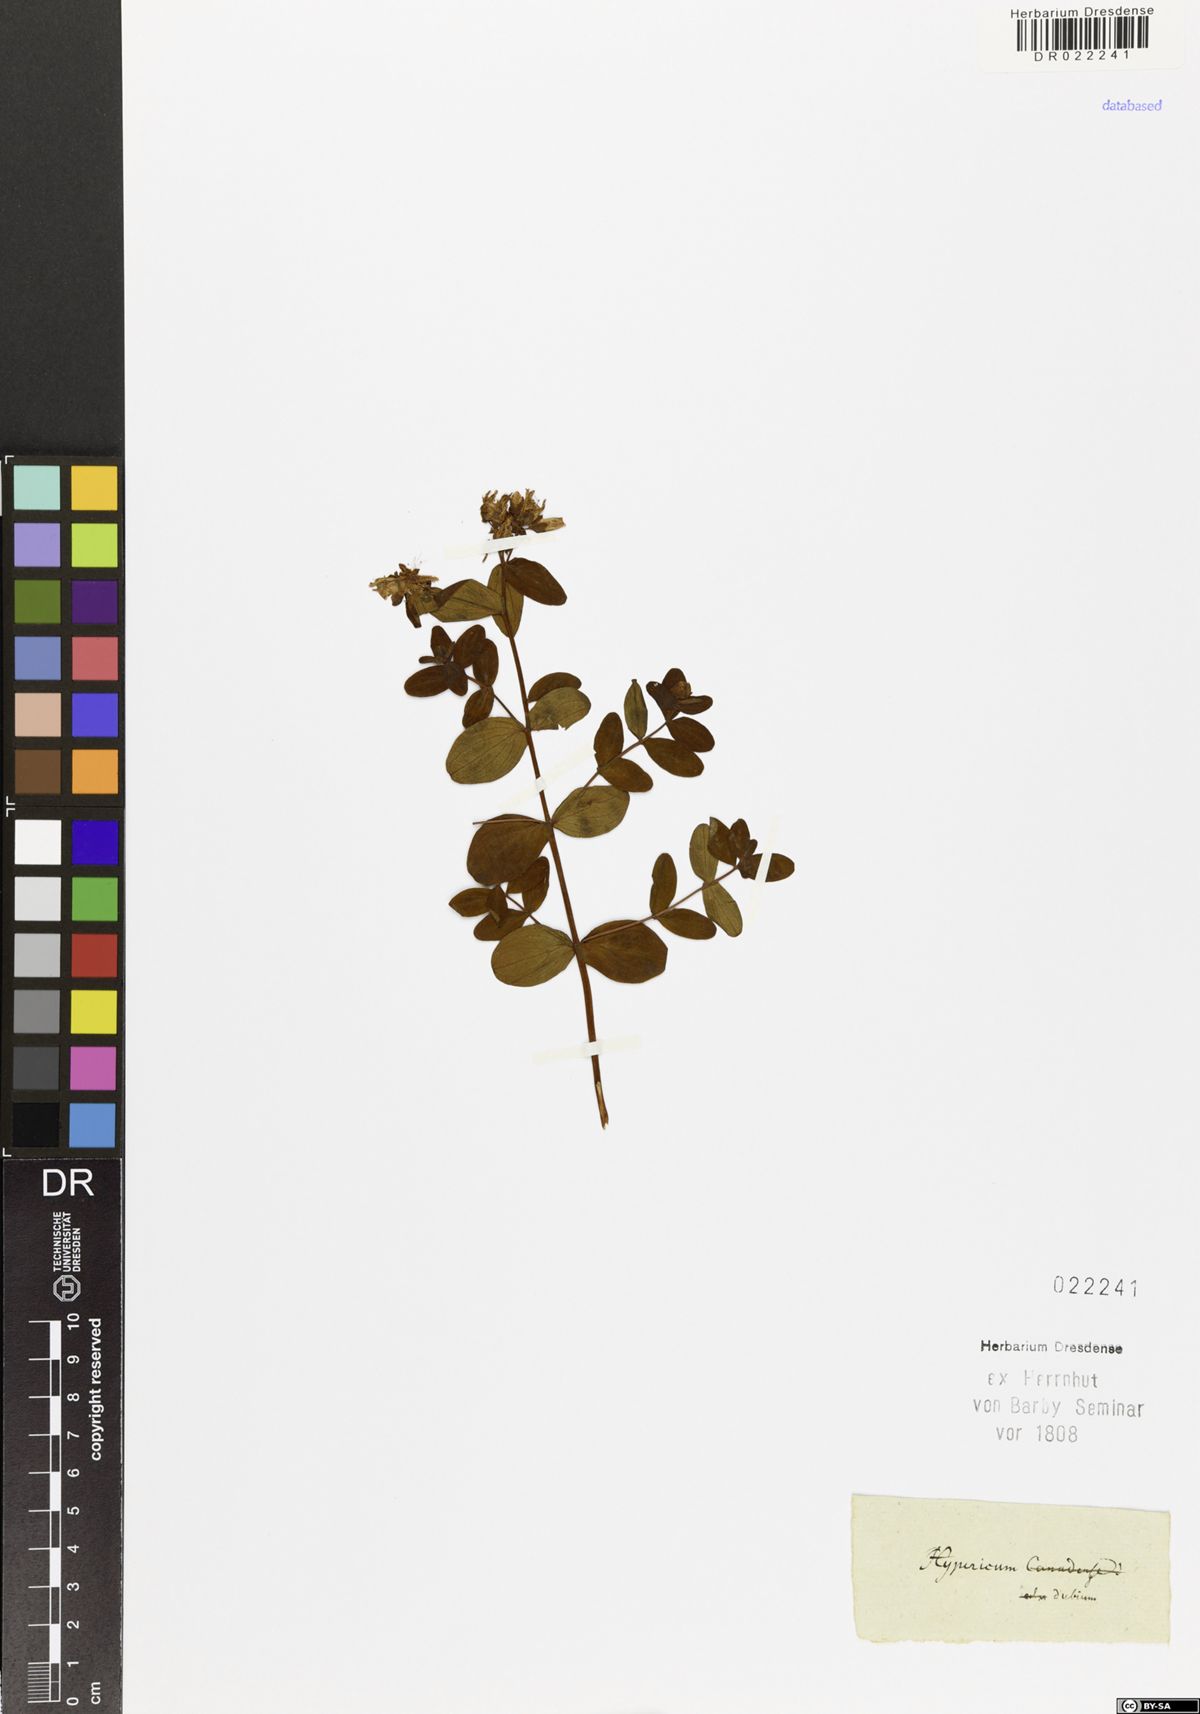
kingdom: Plantae
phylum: Tracheophyta
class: Magnoliopsida
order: Malpighiales
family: Hypericaceae
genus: Hypericum
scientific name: Hypericum dubium
